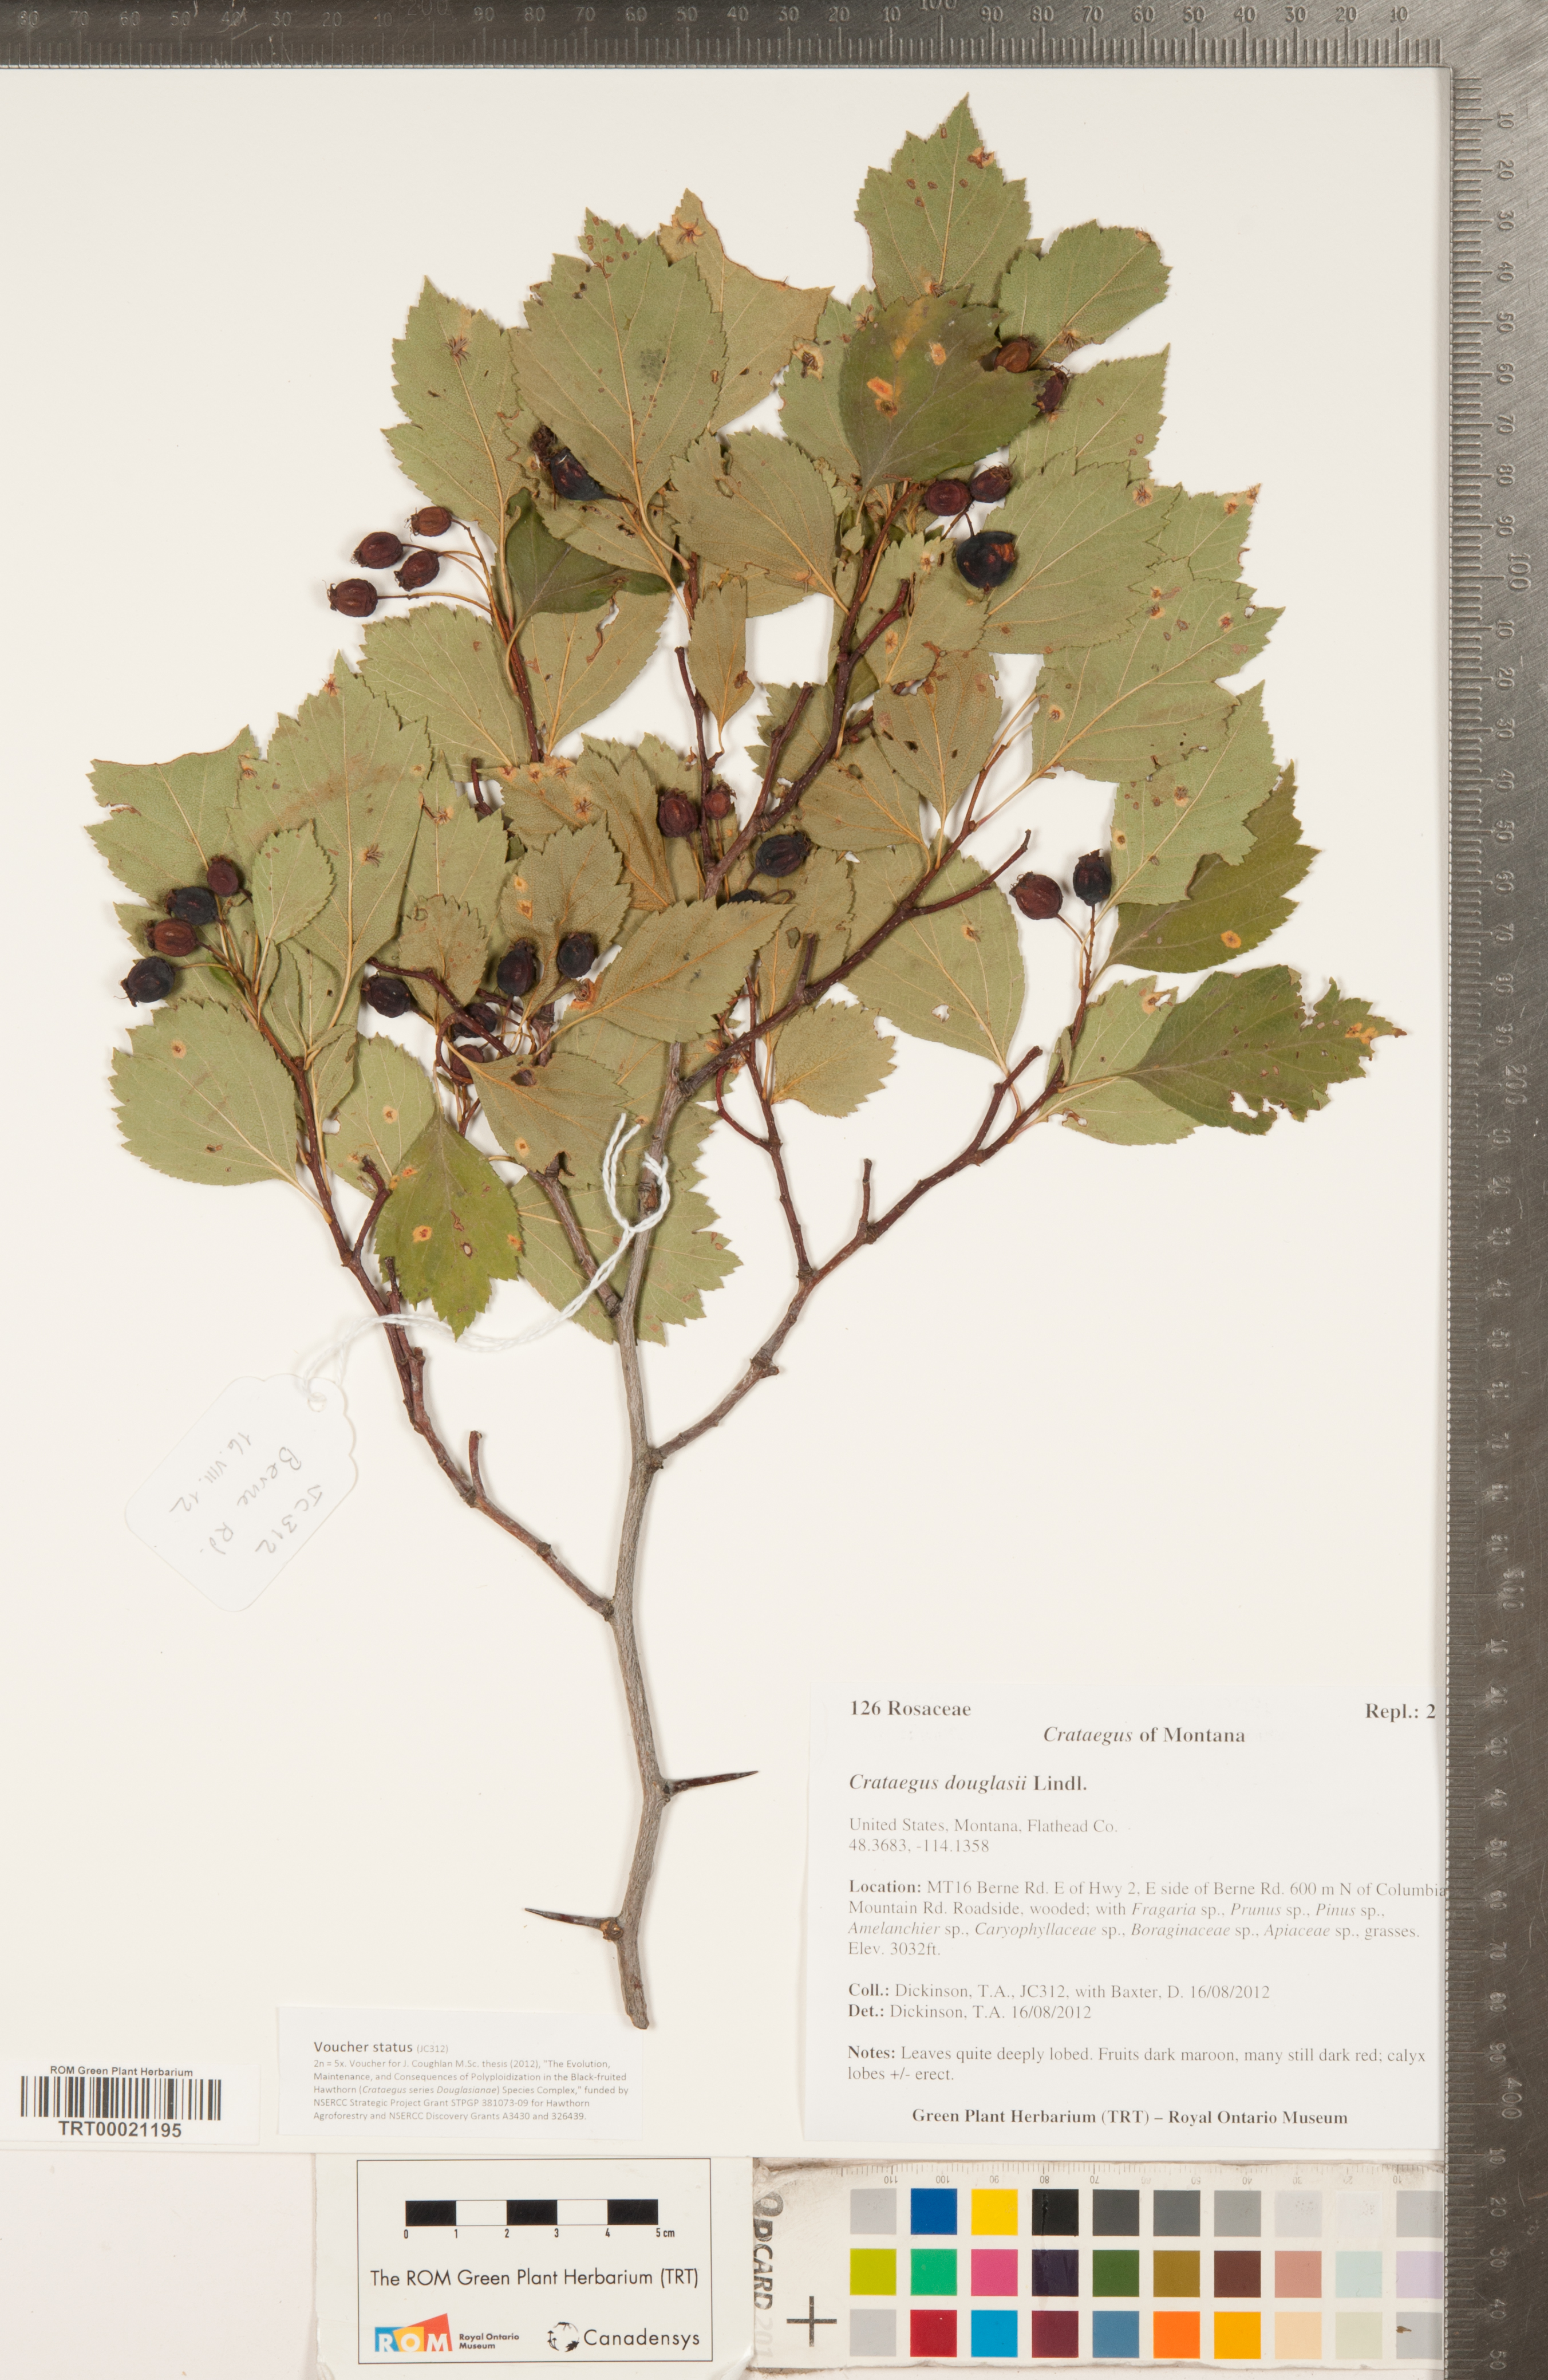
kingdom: Plantae
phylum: Tracheophyta
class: Magnoliopsida
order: Rosales
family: Rosaceae
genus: Crataegus
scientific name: Crataegus douglasii
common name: Black hawthorn
